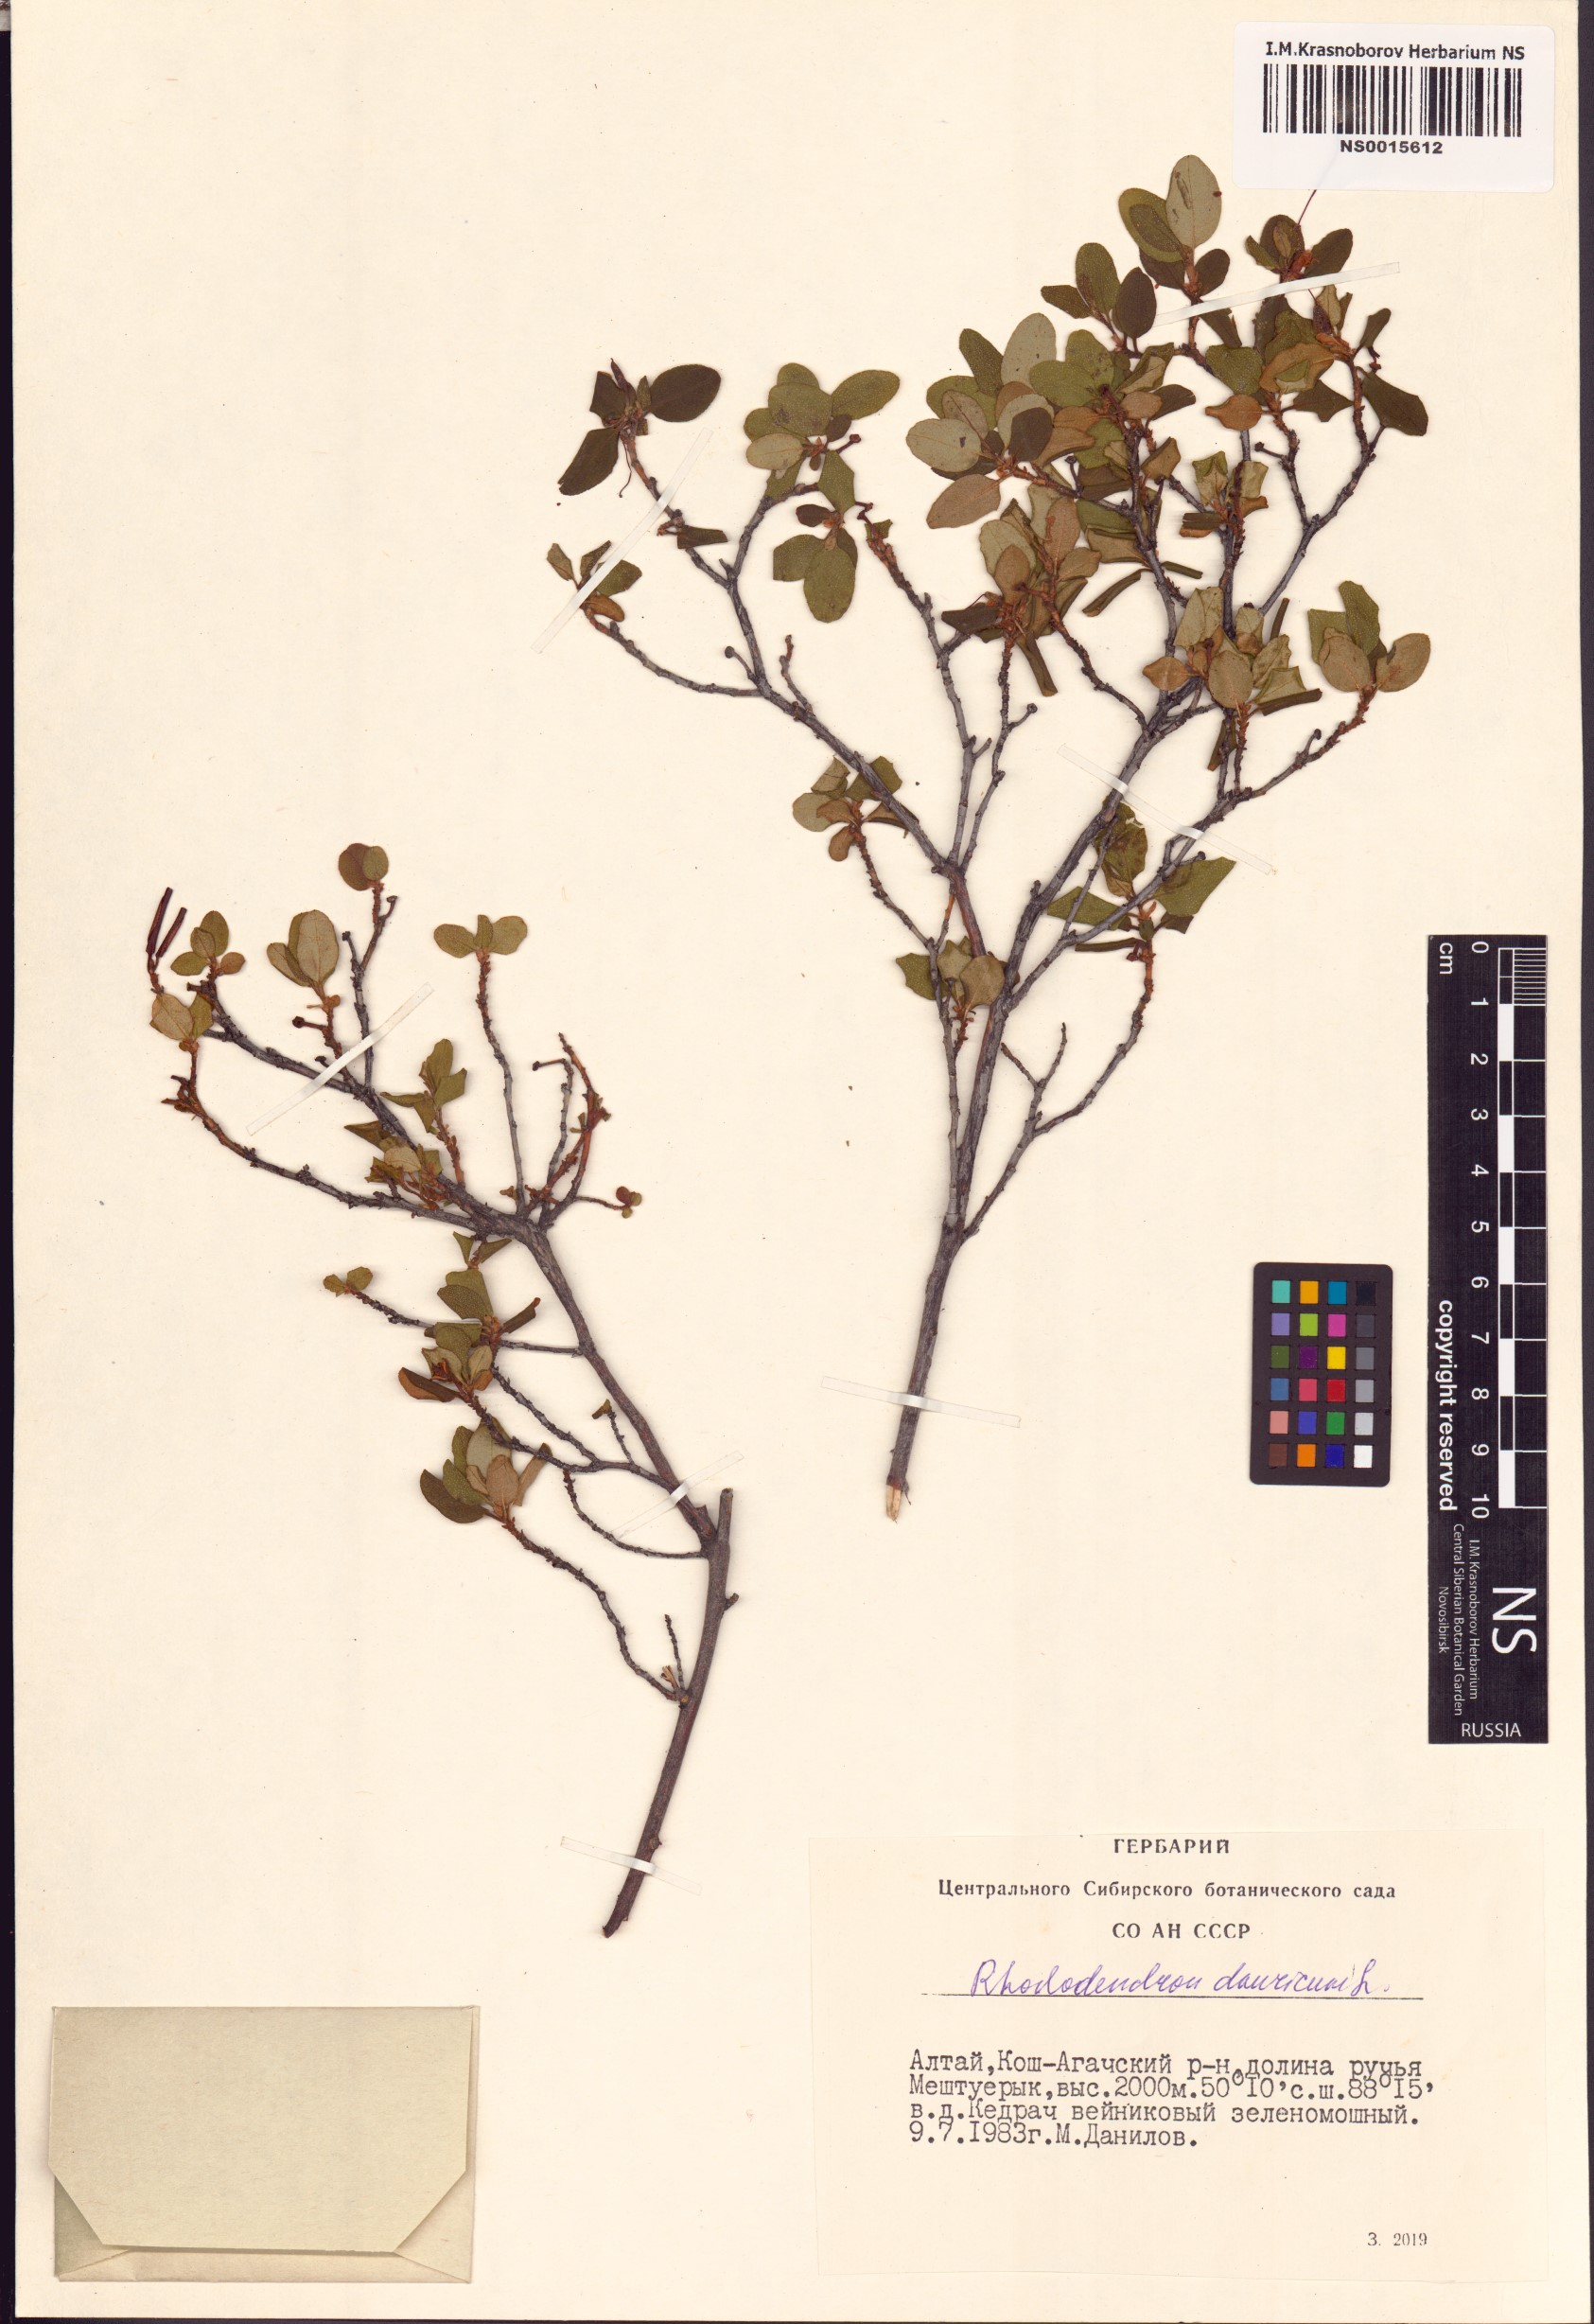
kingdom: Plantae
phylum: Tracheophyta
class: Magnoliopsida
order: Ericales
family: Ericaceae
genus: Rhododendron
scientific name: Rhododendron dauricum
